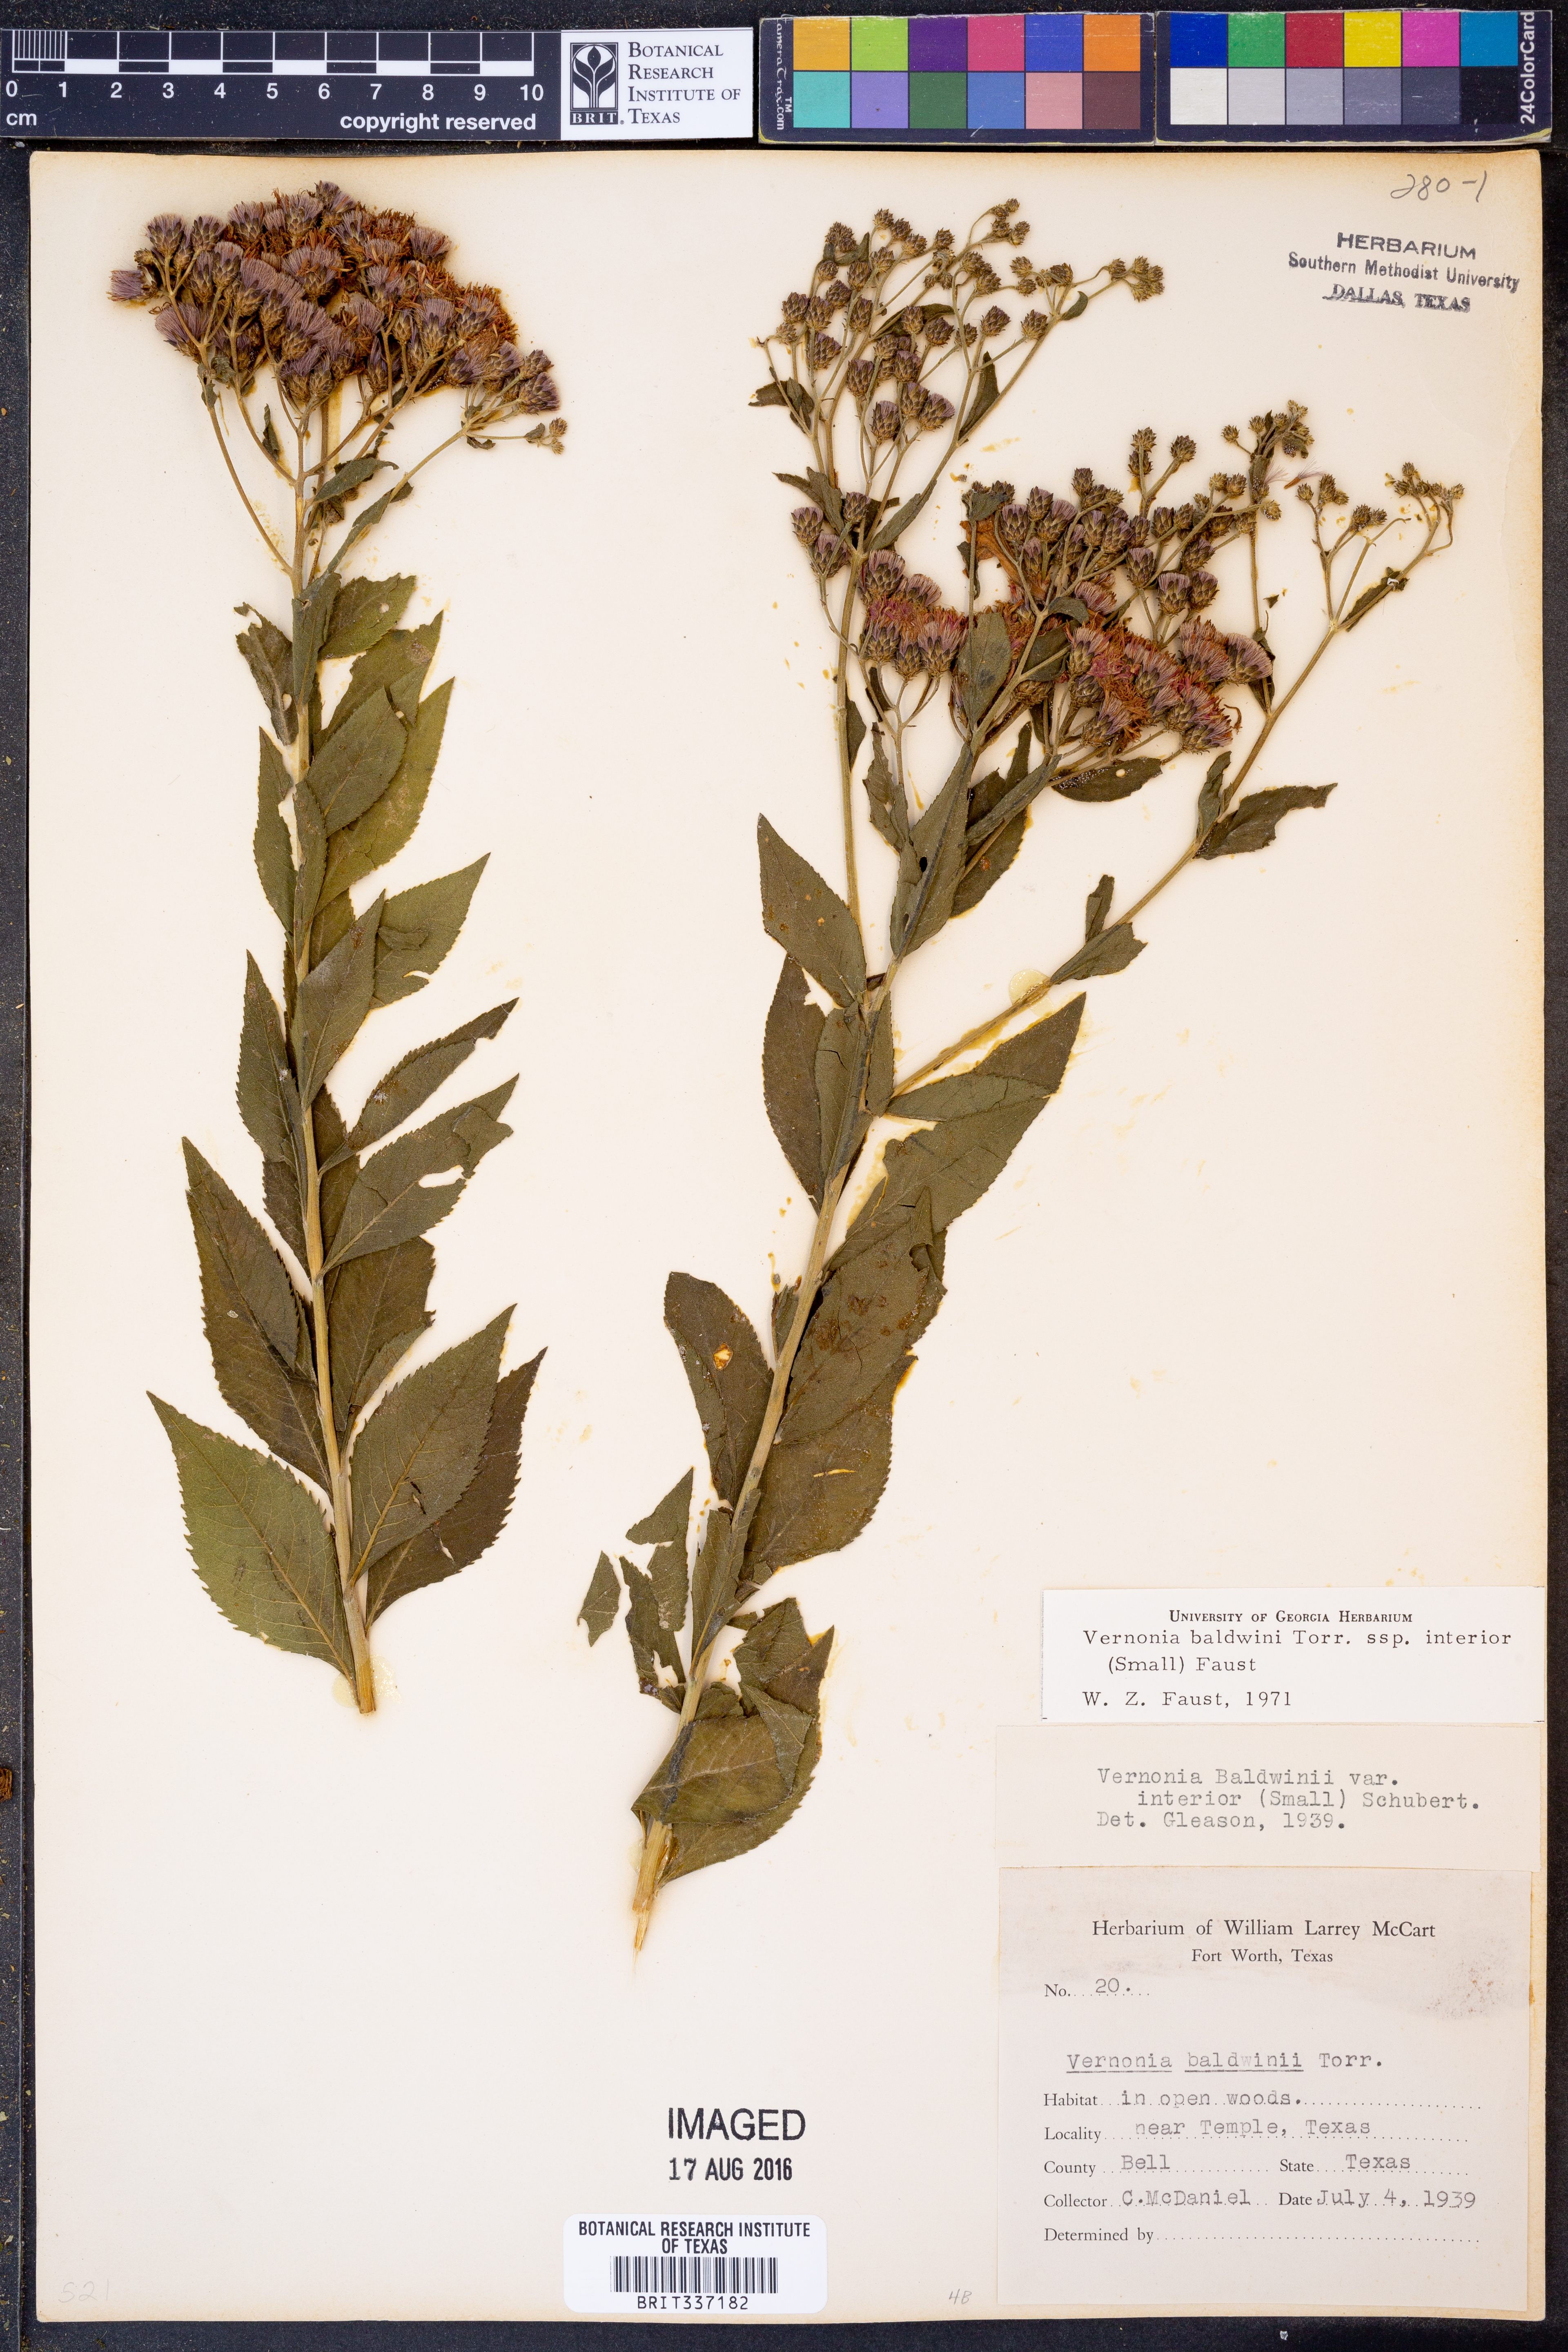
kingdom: Plantae
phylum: Tracheophyta
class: Magnoliopsida
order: Asterales
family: Asteraceae
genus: Vernonia
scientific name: Vernonia baldwinii
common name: Western ironweed
